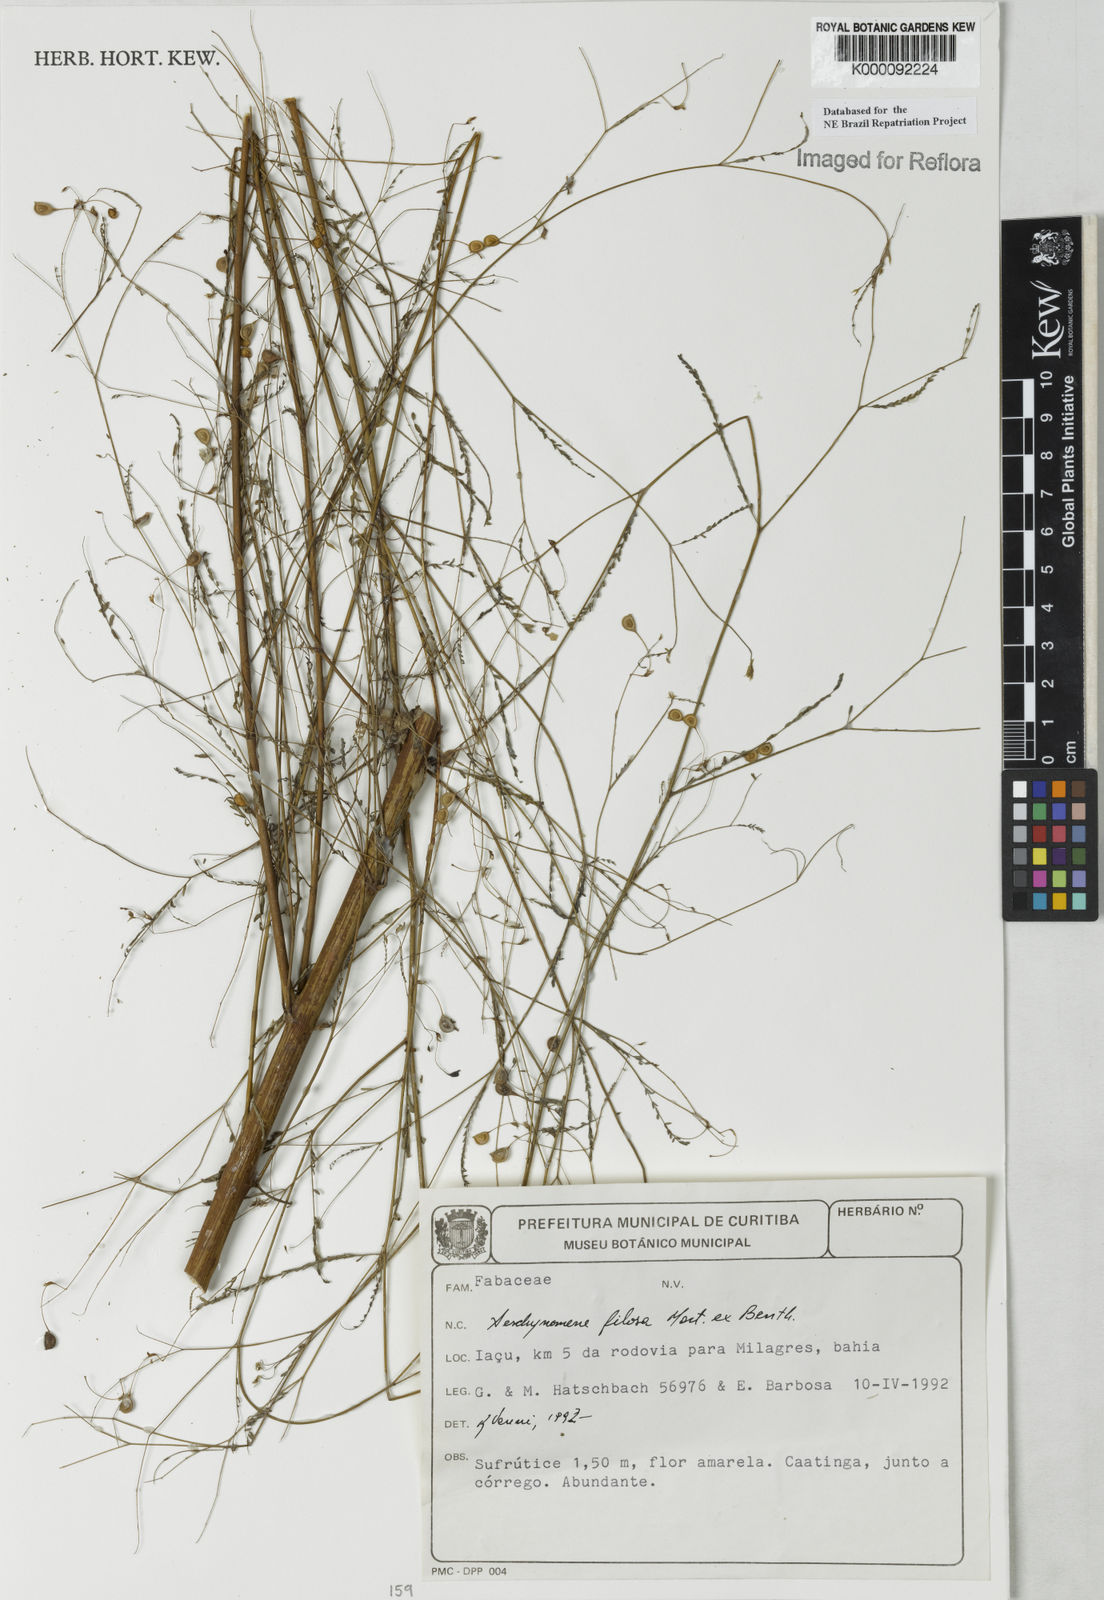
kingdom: Plantae
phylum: Tracheophyta
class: Magnoliopsida
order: Fabales
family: Fabaceae
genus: Aeschynomene
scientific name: Aeschynomene filosa
